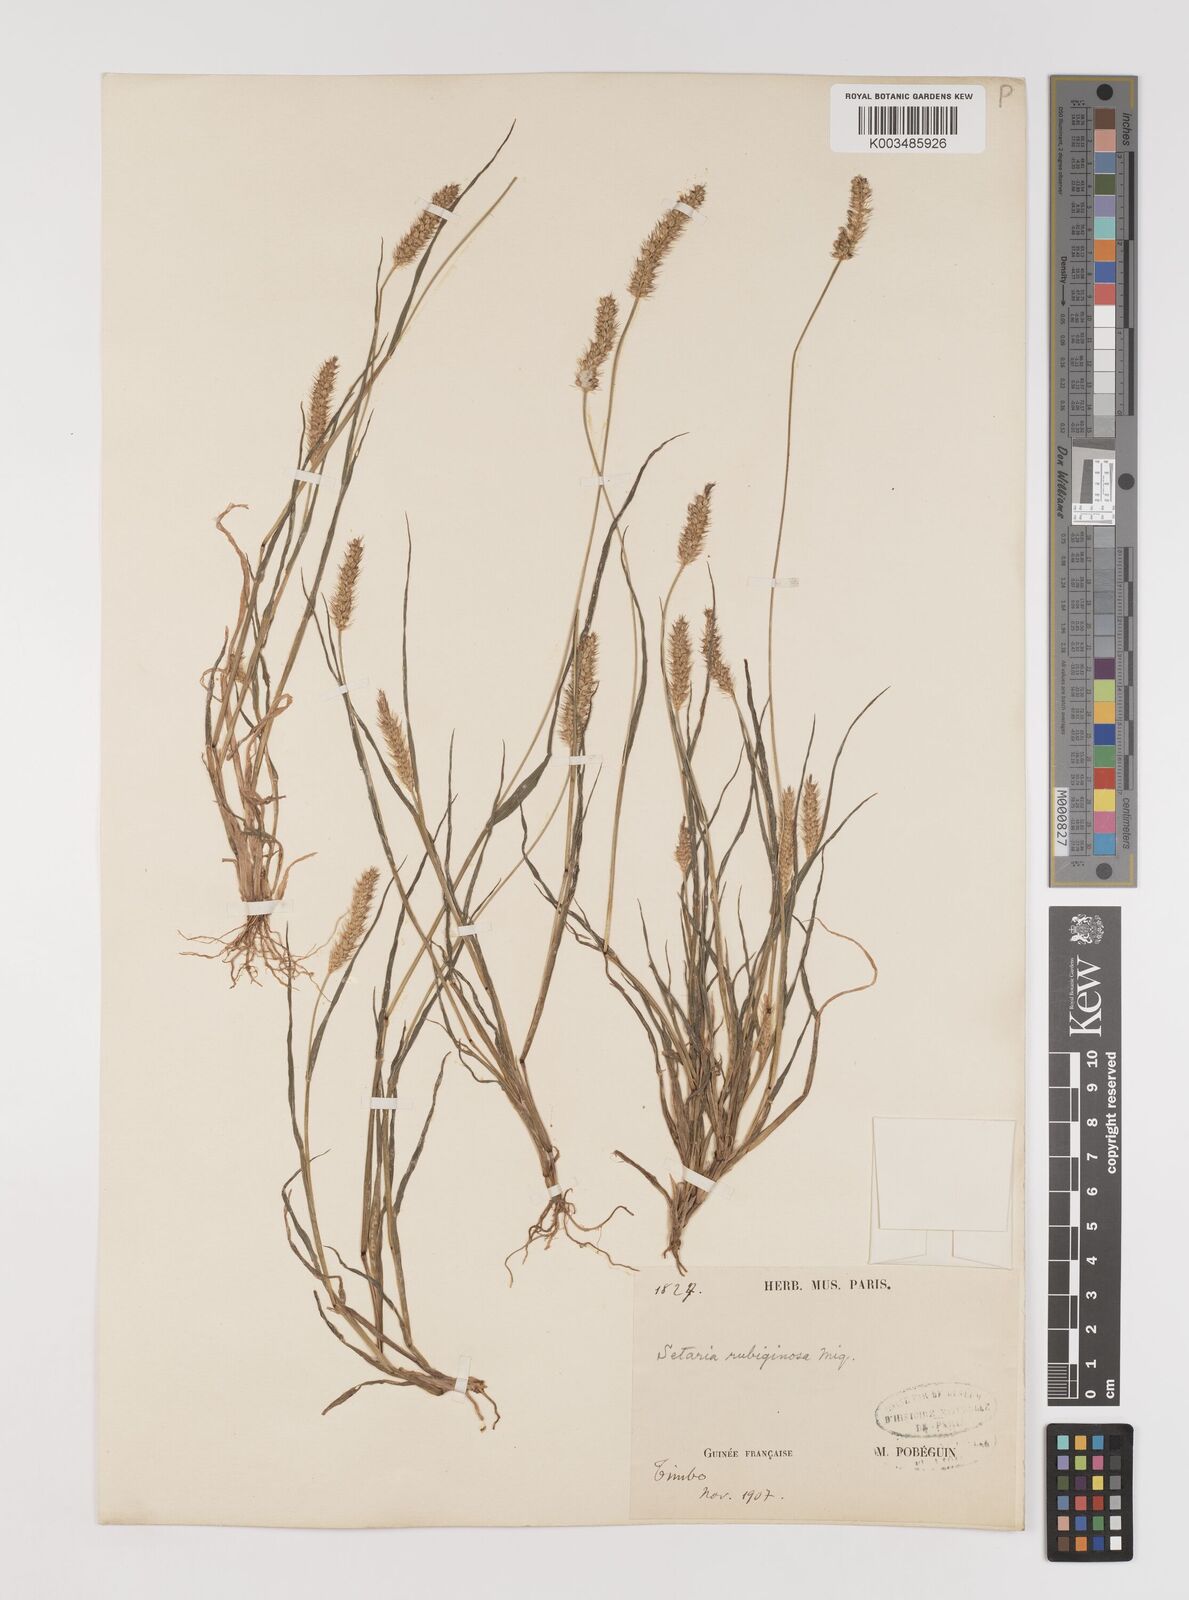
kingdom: Plantae
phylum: Tracheophyta
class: Liliopsida
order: Poales
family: Poaceae
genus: Setaria
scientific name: Setaria pumila
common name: Yellow bristle-grass
